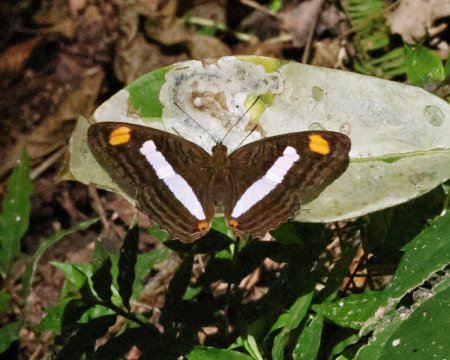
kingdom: Animalia
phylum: Arthropoda
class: Insecta
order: Lepidoptera
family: Nymphalidae
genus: Limenitis
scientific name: Limenitis Adelpha basiloides
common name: Spot-celled Sister
